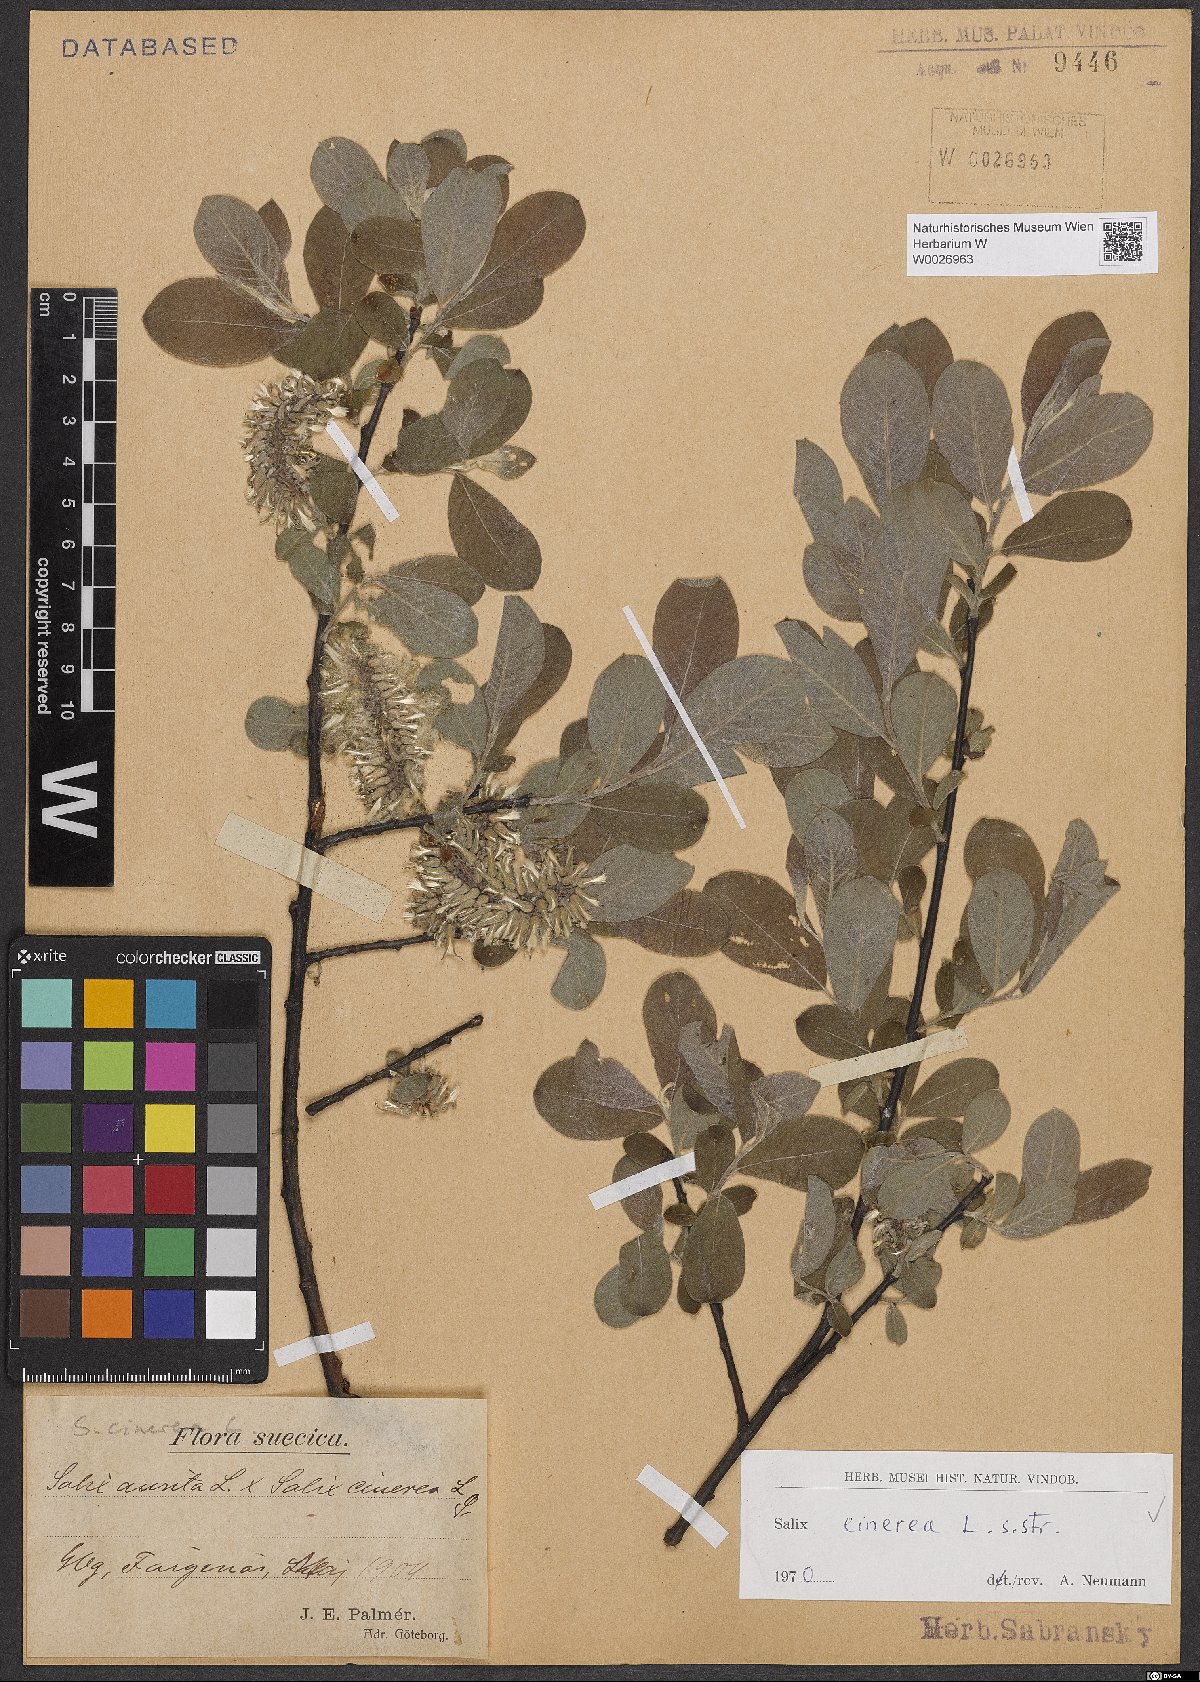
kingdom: Plantae
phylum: Tracheophyta
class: Magnoliopsida
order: Malpighiales
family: Salicaceae
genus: Salix
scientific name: Salix cinerea
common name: Common sallow
